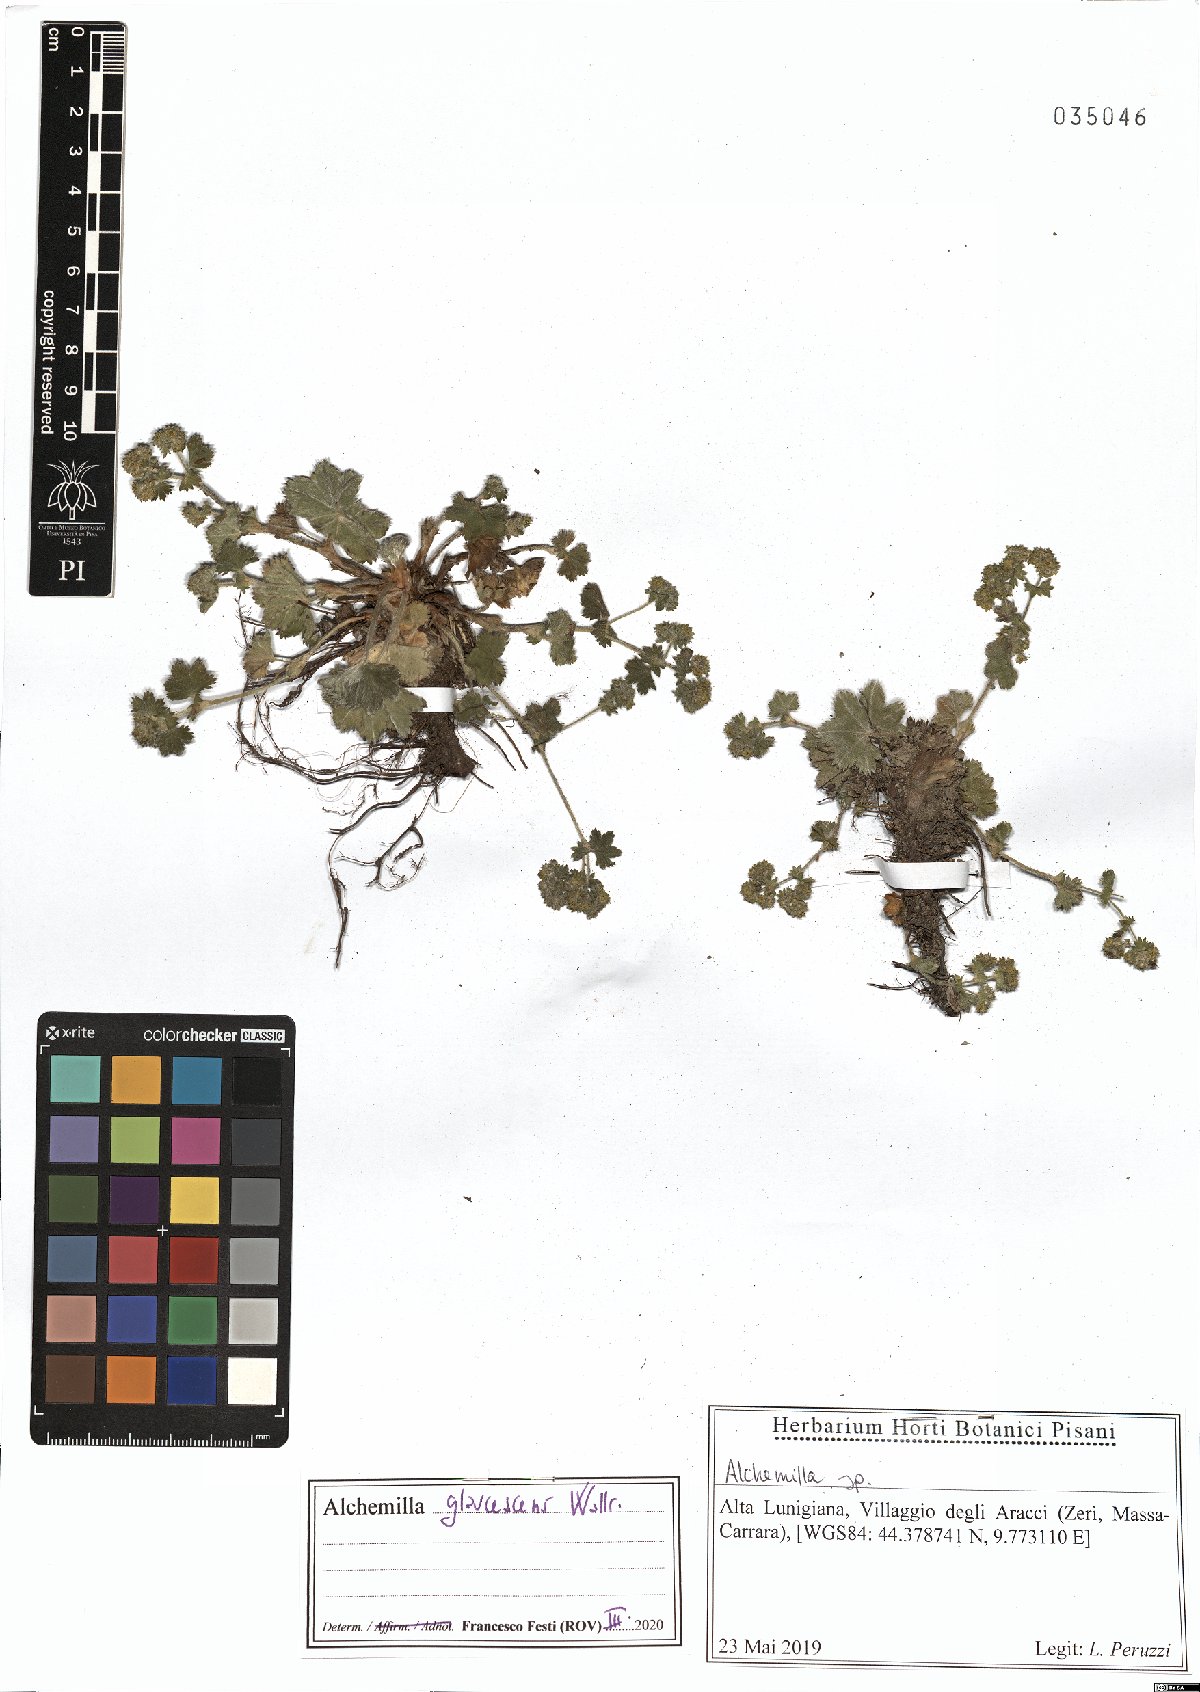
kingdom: Plantae
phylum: Tracheophyta
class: Magnoliopsida
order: Rosales
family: Rosaceae
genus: Alchemilla
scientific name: Alchemilla glaucescens
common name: Silky lady's mantle
